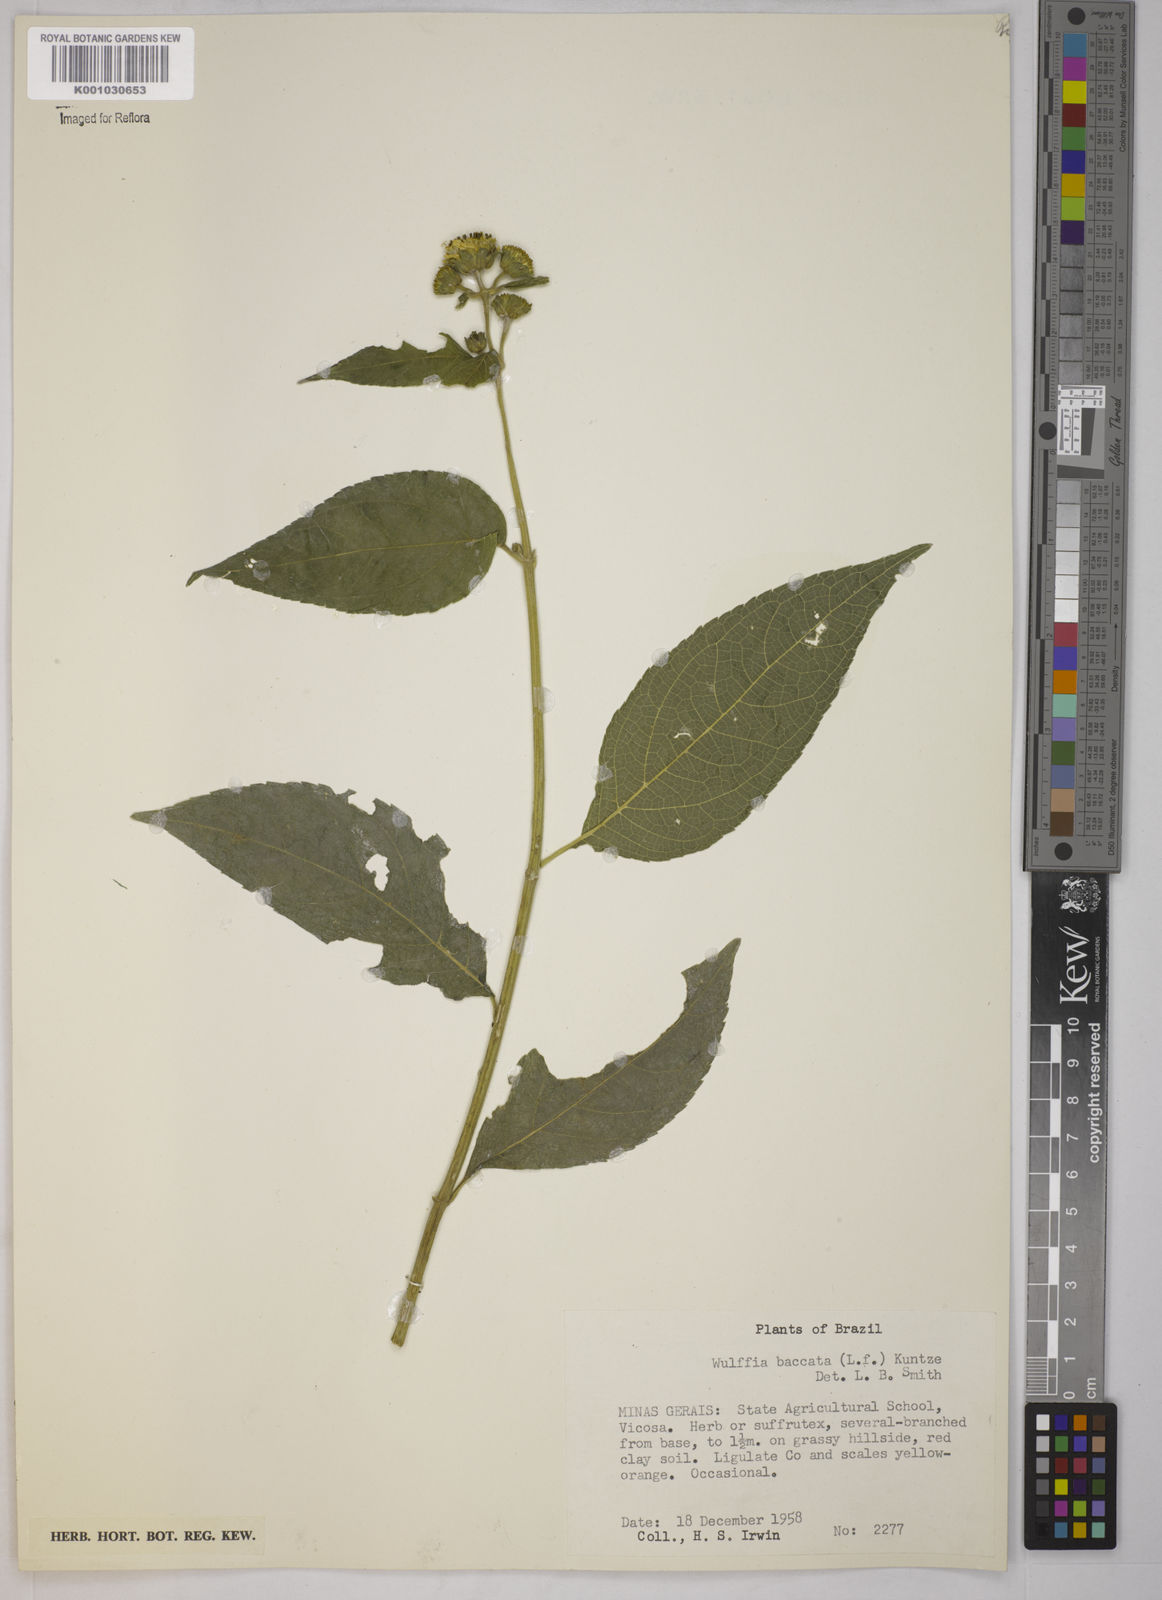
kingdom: Plantae
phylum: Tracheophyta
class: Magnoliopsida
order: Asterales
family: Asteraceae
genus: Tilesia
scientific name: Tilesia baccata
